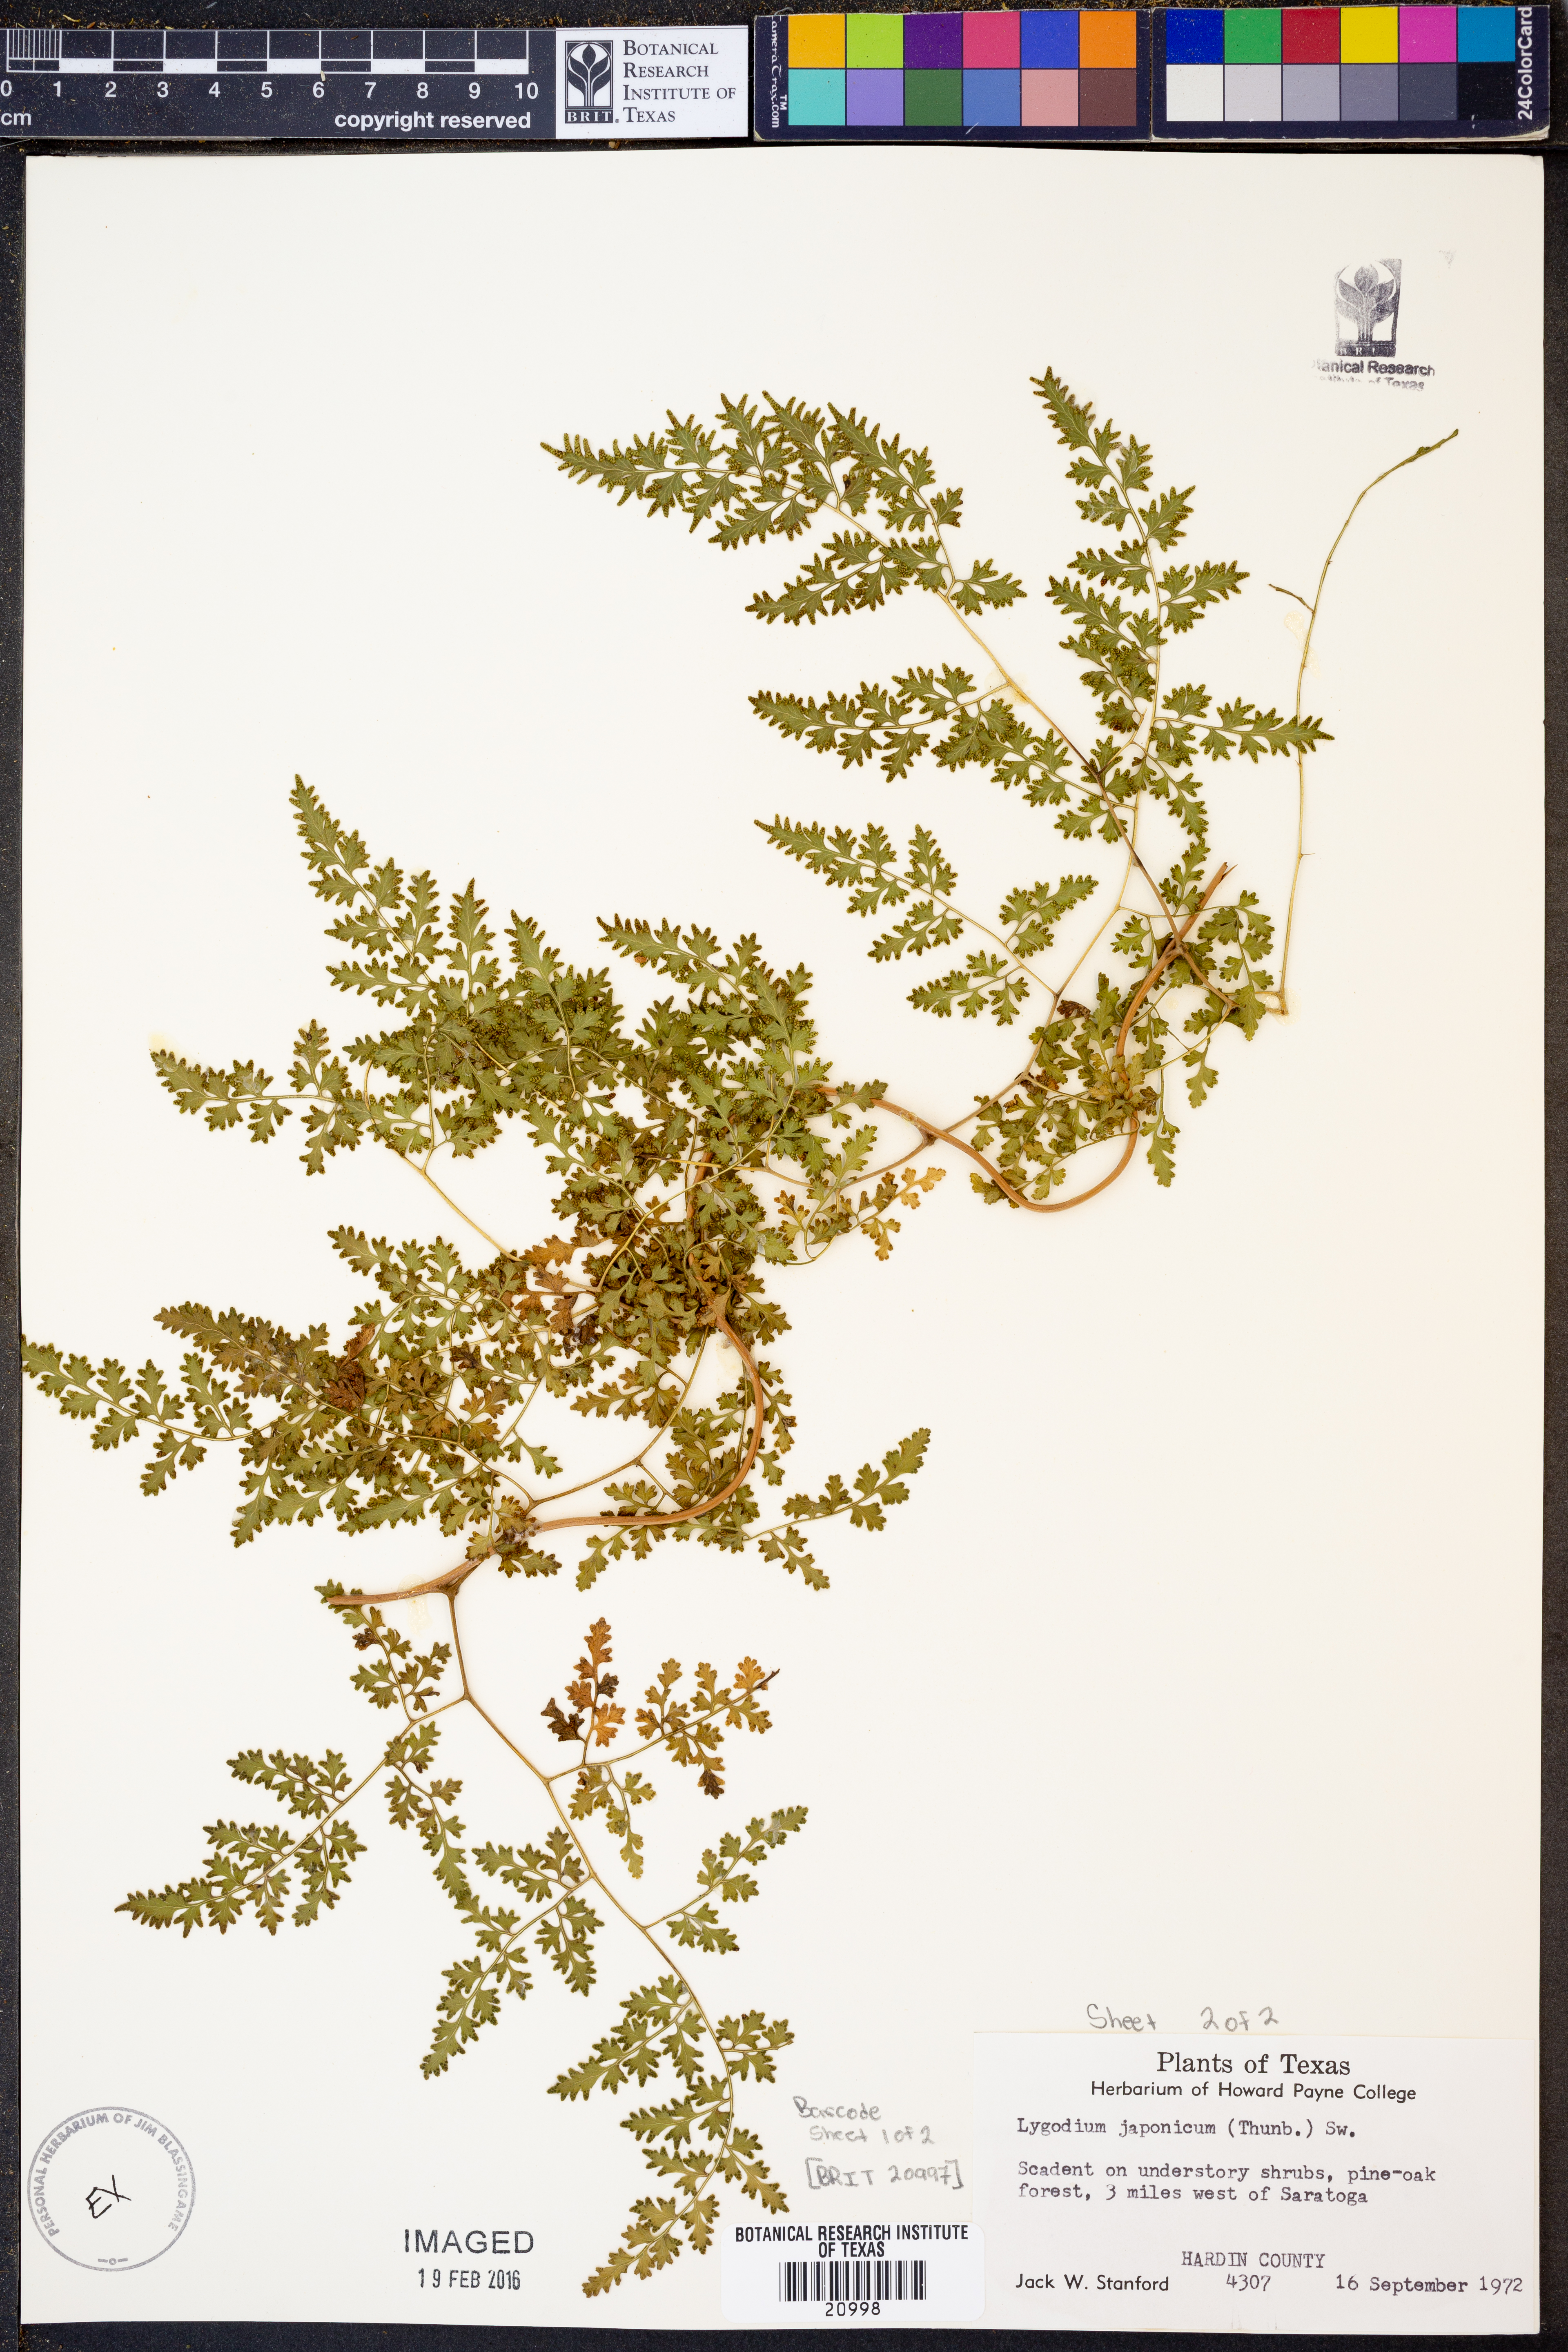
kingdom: Plantae
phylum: Tracheophyta
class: Polypodiopsida
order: Schizaeales
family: Lygodiaceae
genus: Lygodium
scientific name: Lygodium japonicum
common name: Japanese climbing fern
